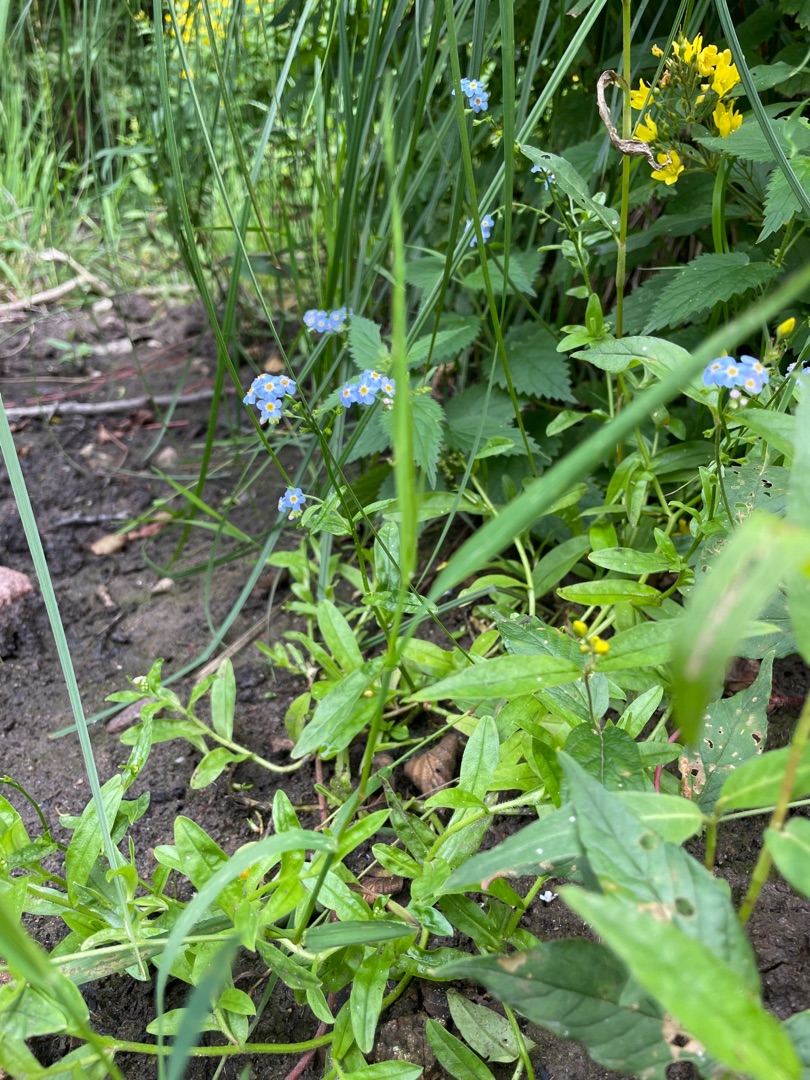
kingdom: Plantae
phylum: Tracheophyta
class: Magnoliopsida
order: Boraginales
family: Boraginaceae
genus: Myosotis
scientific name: Myosotis scorpioides
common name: Eng-forglemmigej
